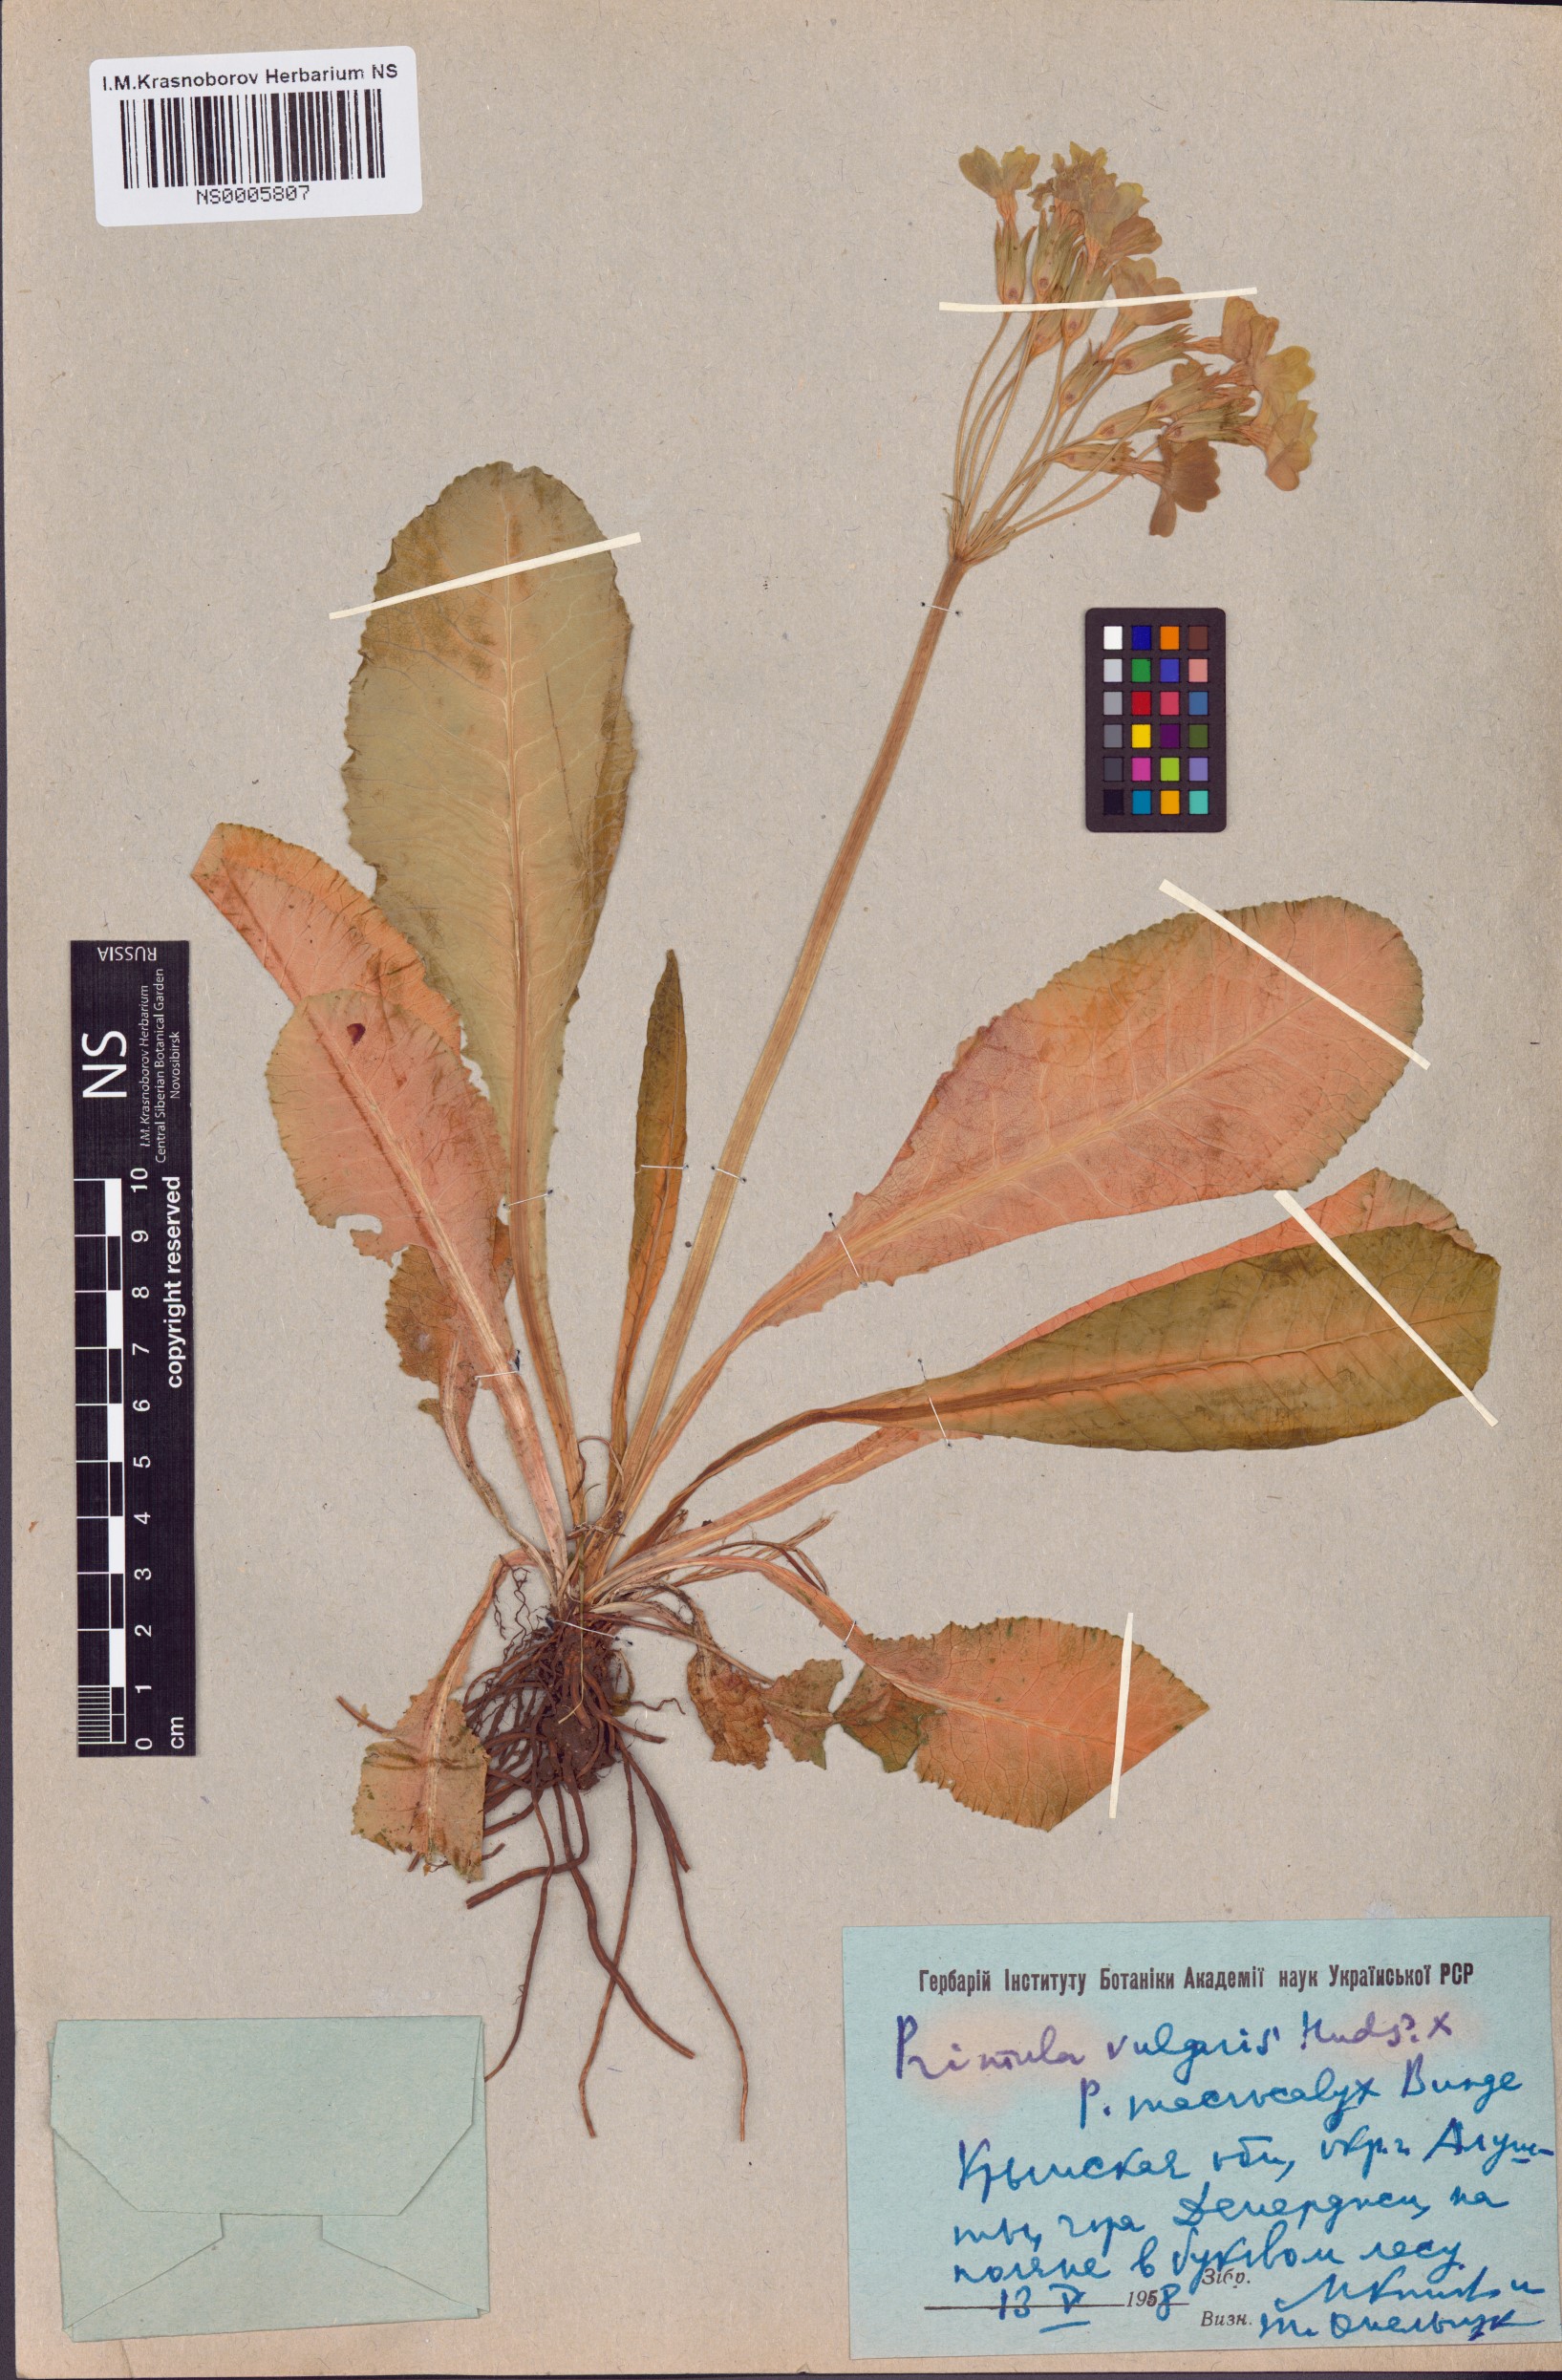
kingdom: Plantae
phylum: Tracheophyta
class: Magnoliopsida
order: Ericales
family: Primulaceae
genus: Primula
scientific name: Primula vulgaris
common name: Primrose
